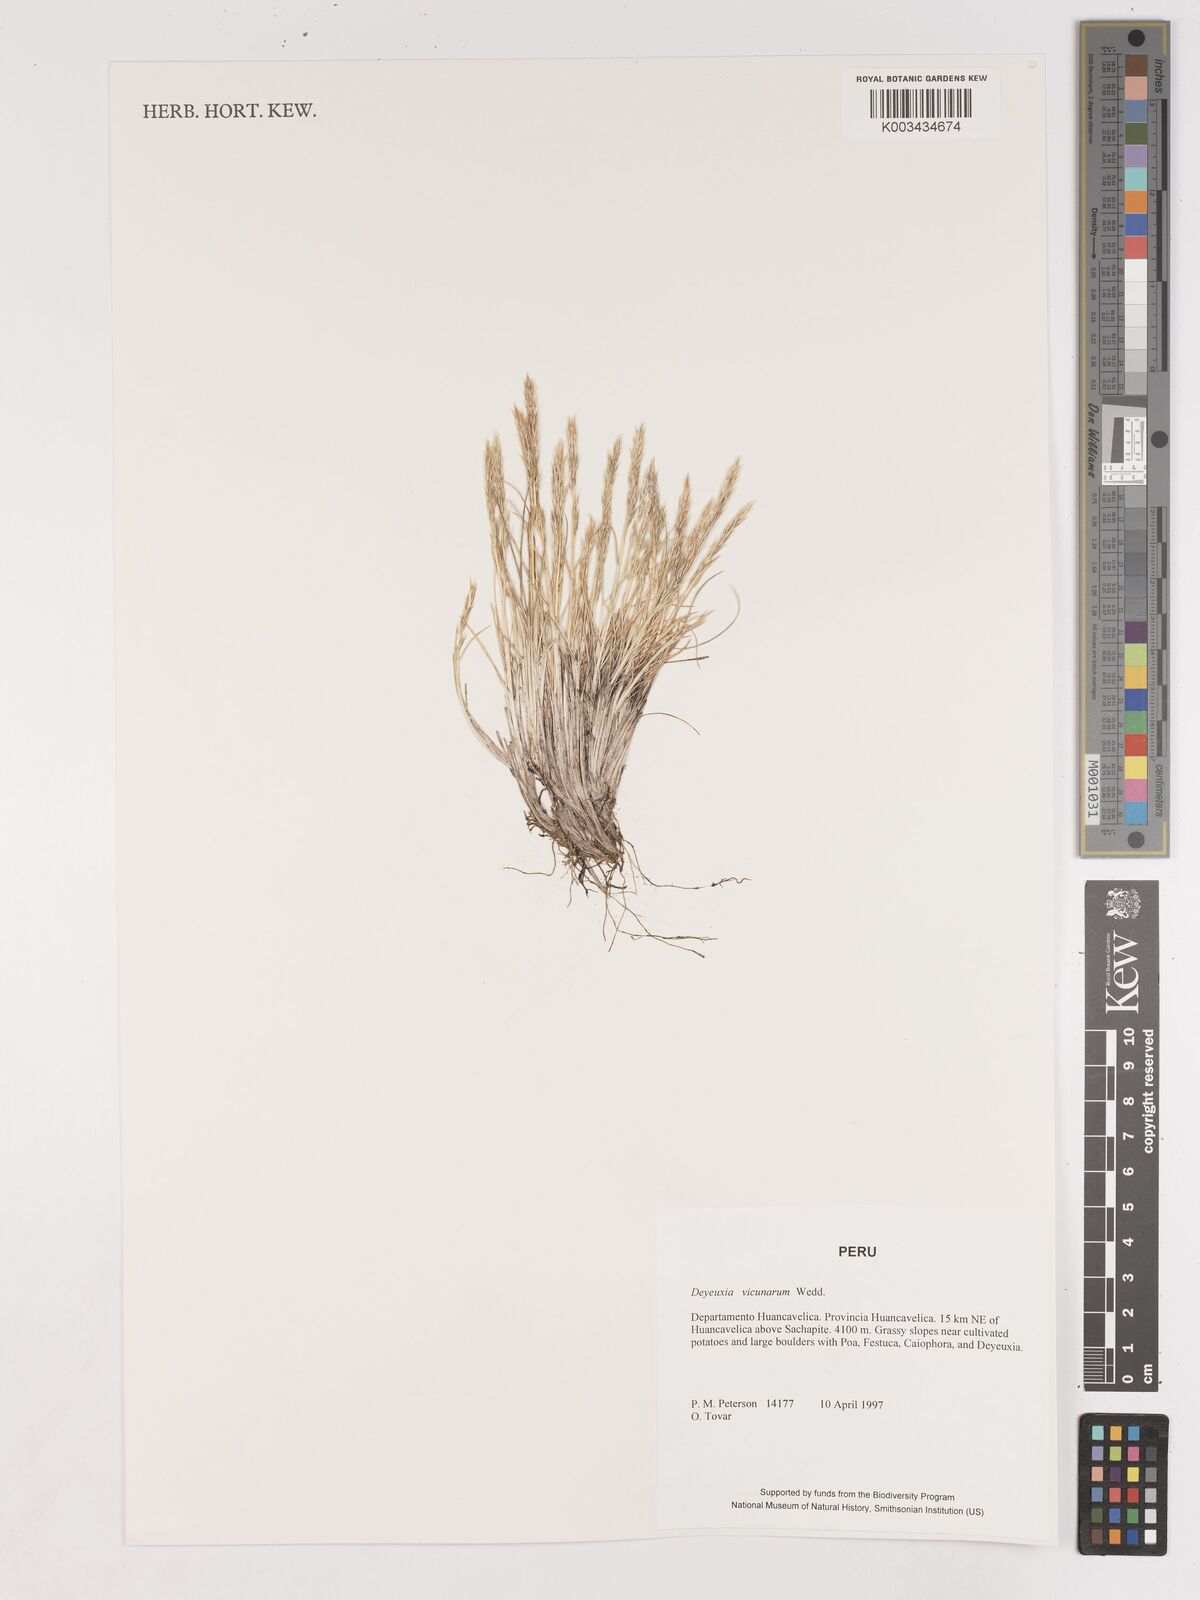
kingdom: Plantae
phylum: Tracheophyta
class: Liliopsida
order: Poales
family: Poaceae
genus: Cinnagrostis
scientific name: Cinnagrostis vicunarum
